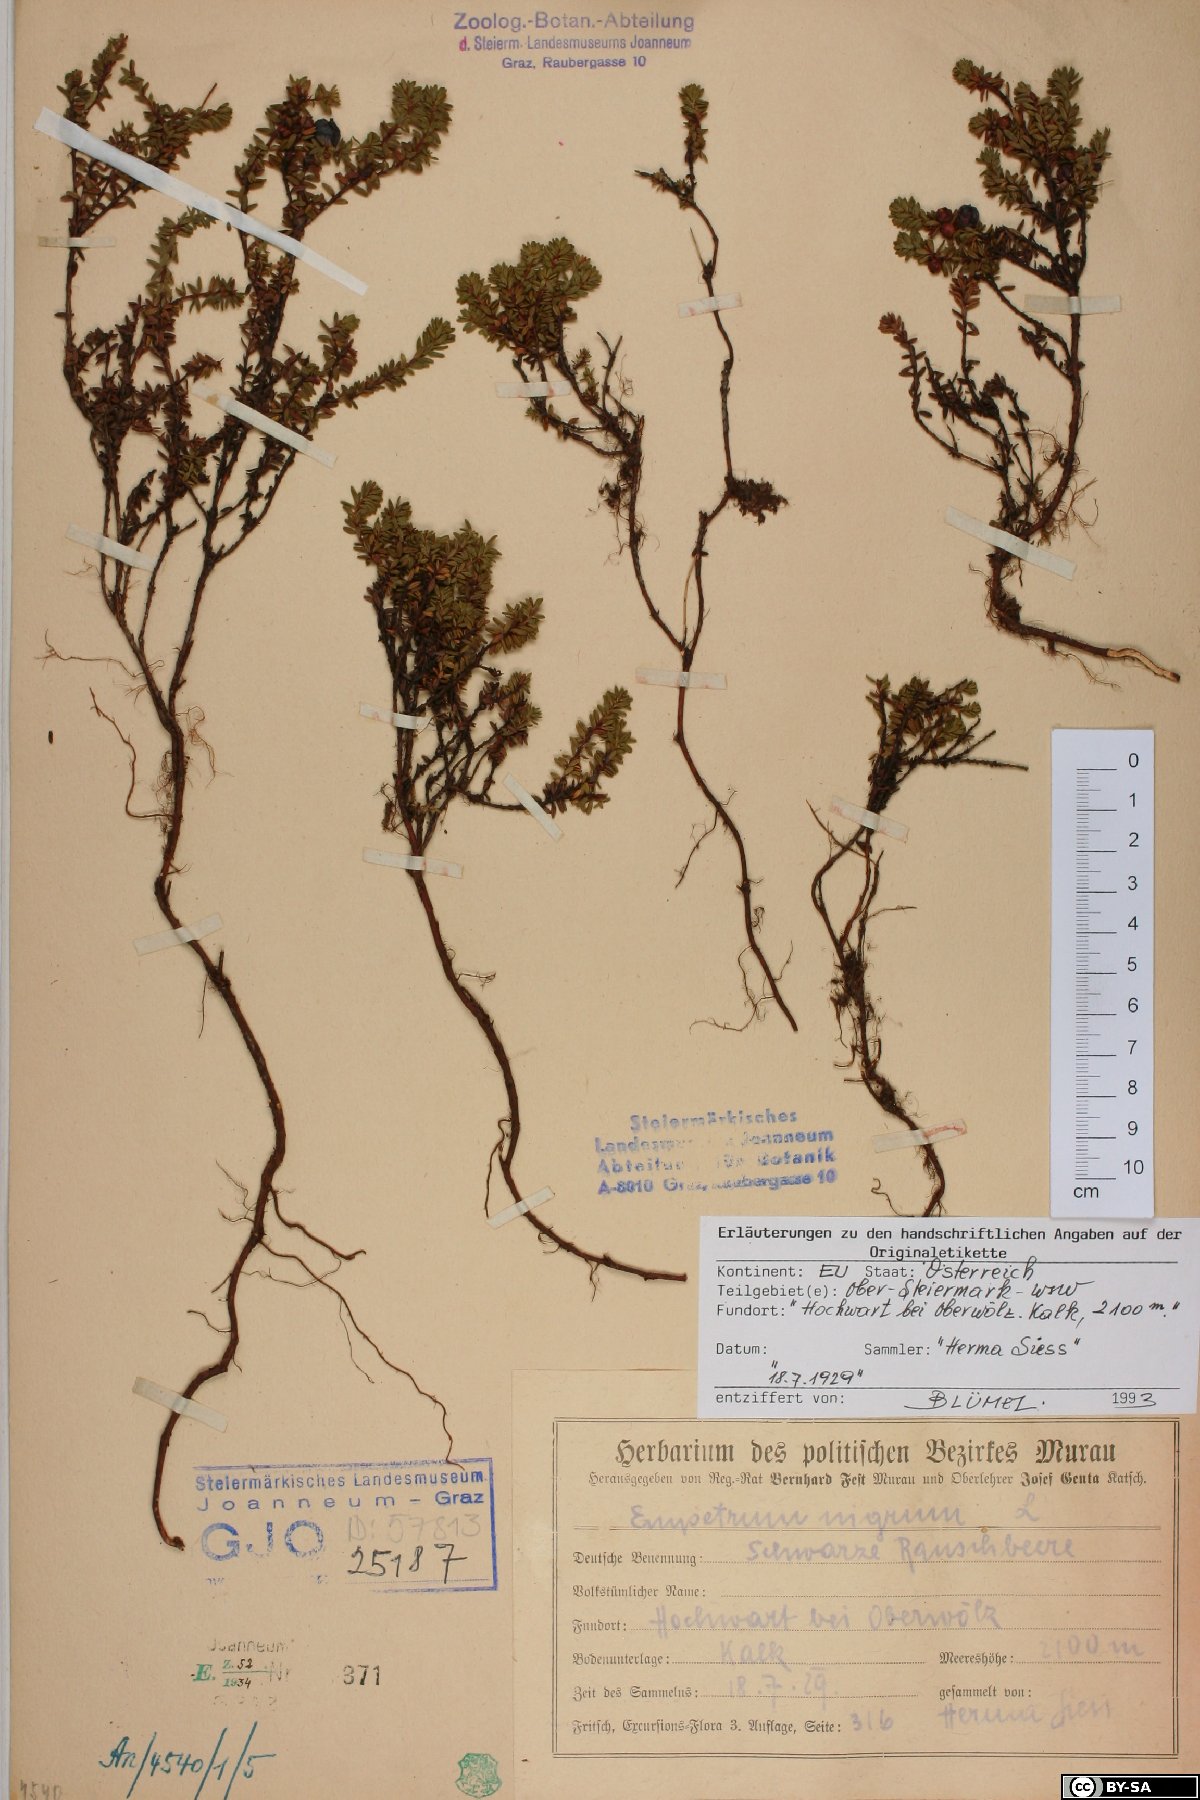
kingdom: Plantae
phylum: Tracheophyta
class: Magnoliopsida
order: Ericales
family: Ericaceae
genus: Empetrum
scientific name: Empetrum hermaphroditum
